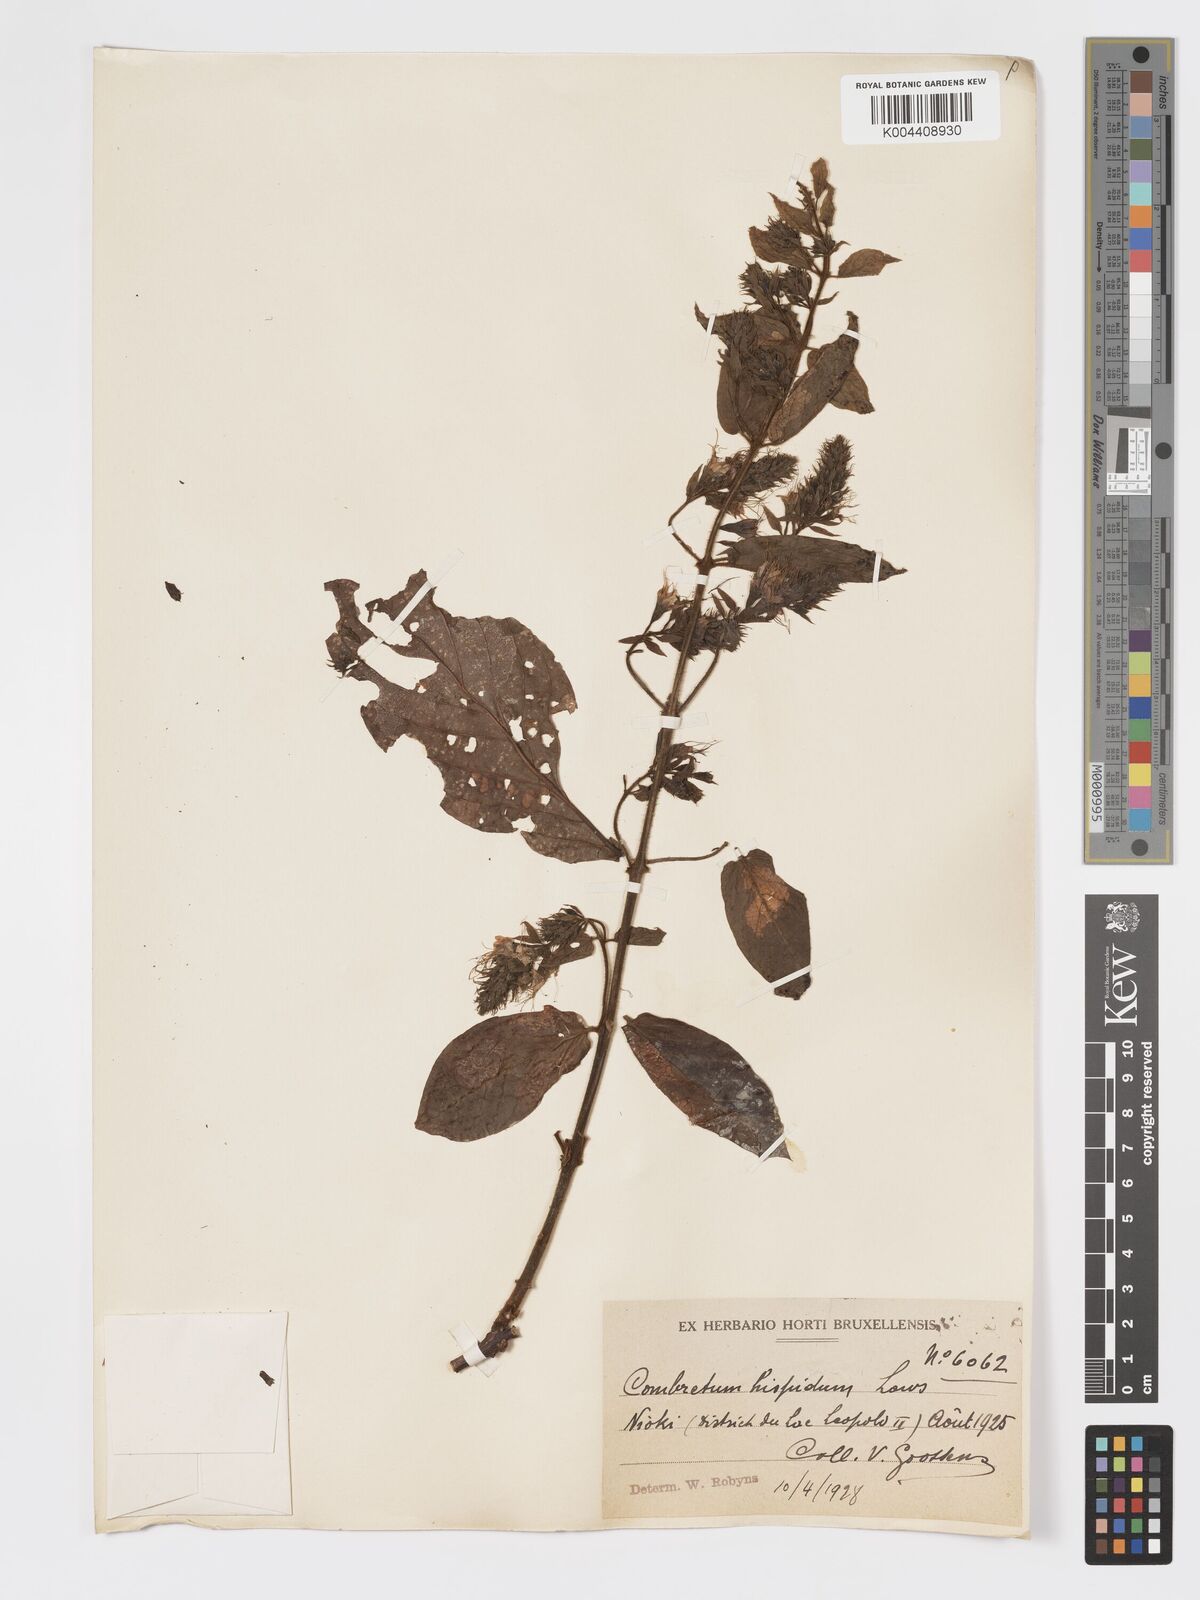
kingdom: Plantae
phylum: Tracheophyta
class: Magnoliopsida
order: Myrtales
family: Combretaceae
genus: Combretum
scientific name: Combretum comosum
